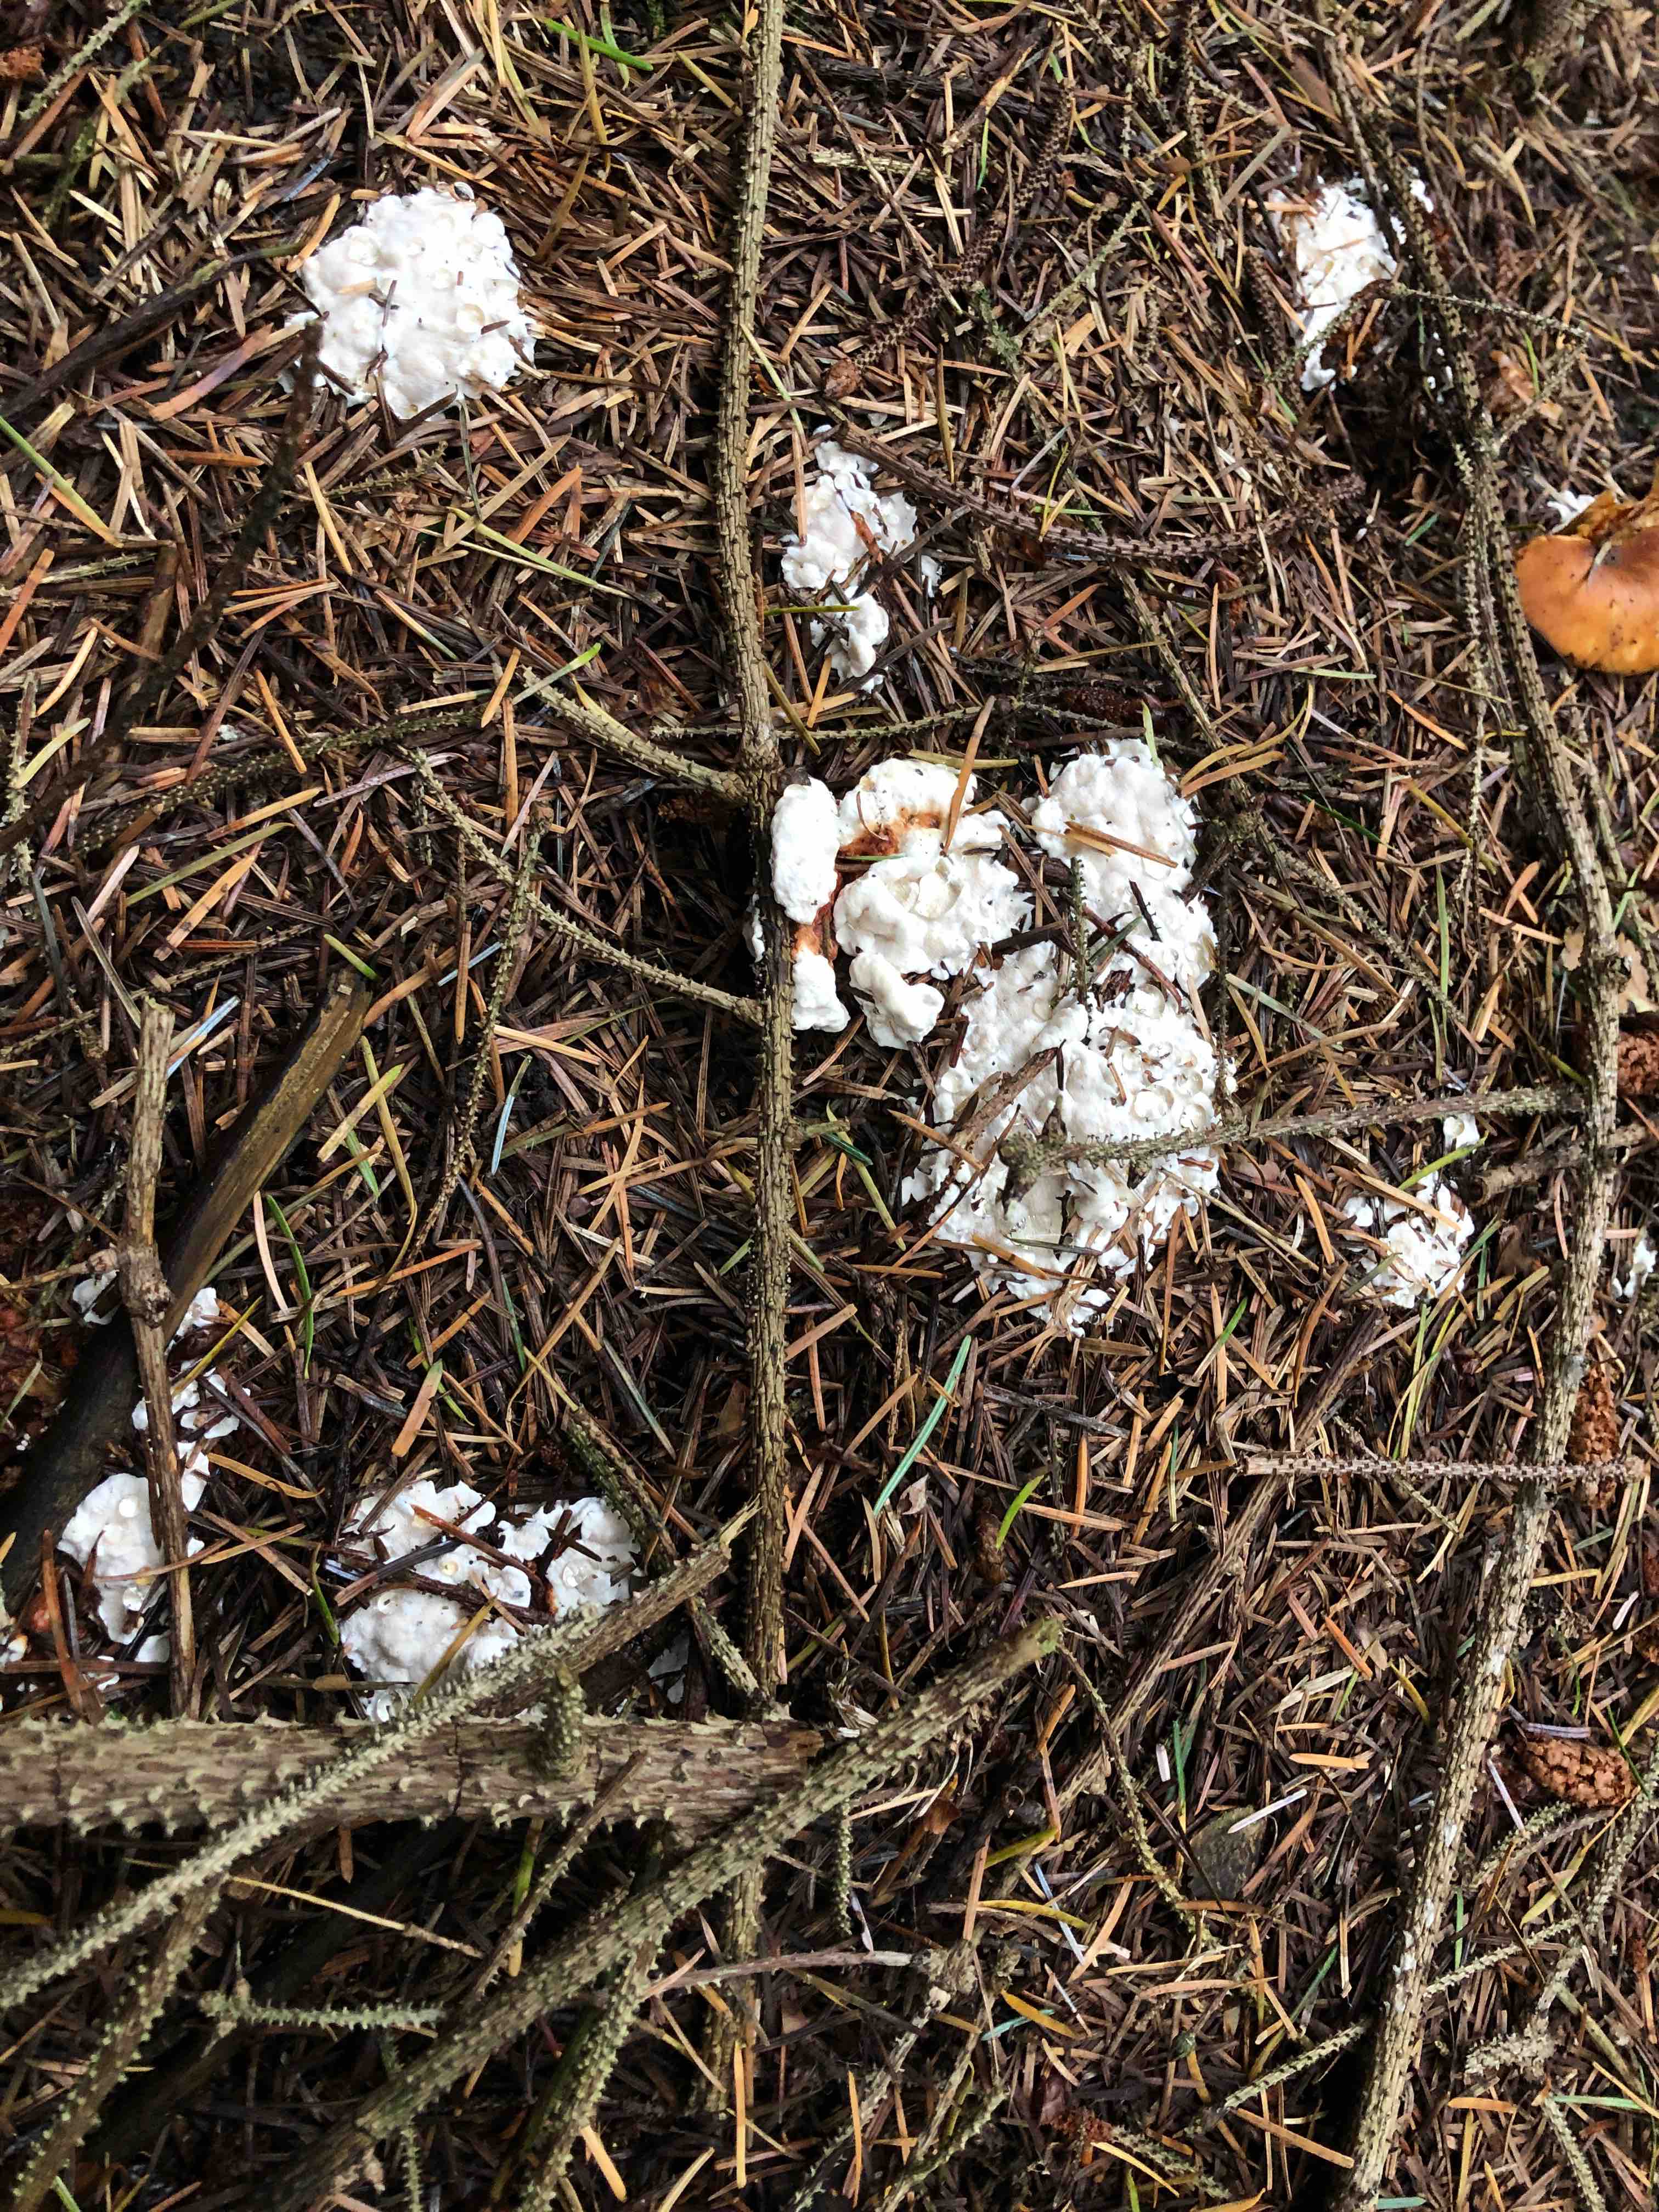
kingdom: Fungi
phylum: Basidiomycota
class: Agaricomycetes
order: Russulales
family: Bondarzewiaceae
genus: Heterobasidion
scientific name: Heterobasidion annosum
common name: almindelig rodfordærver
